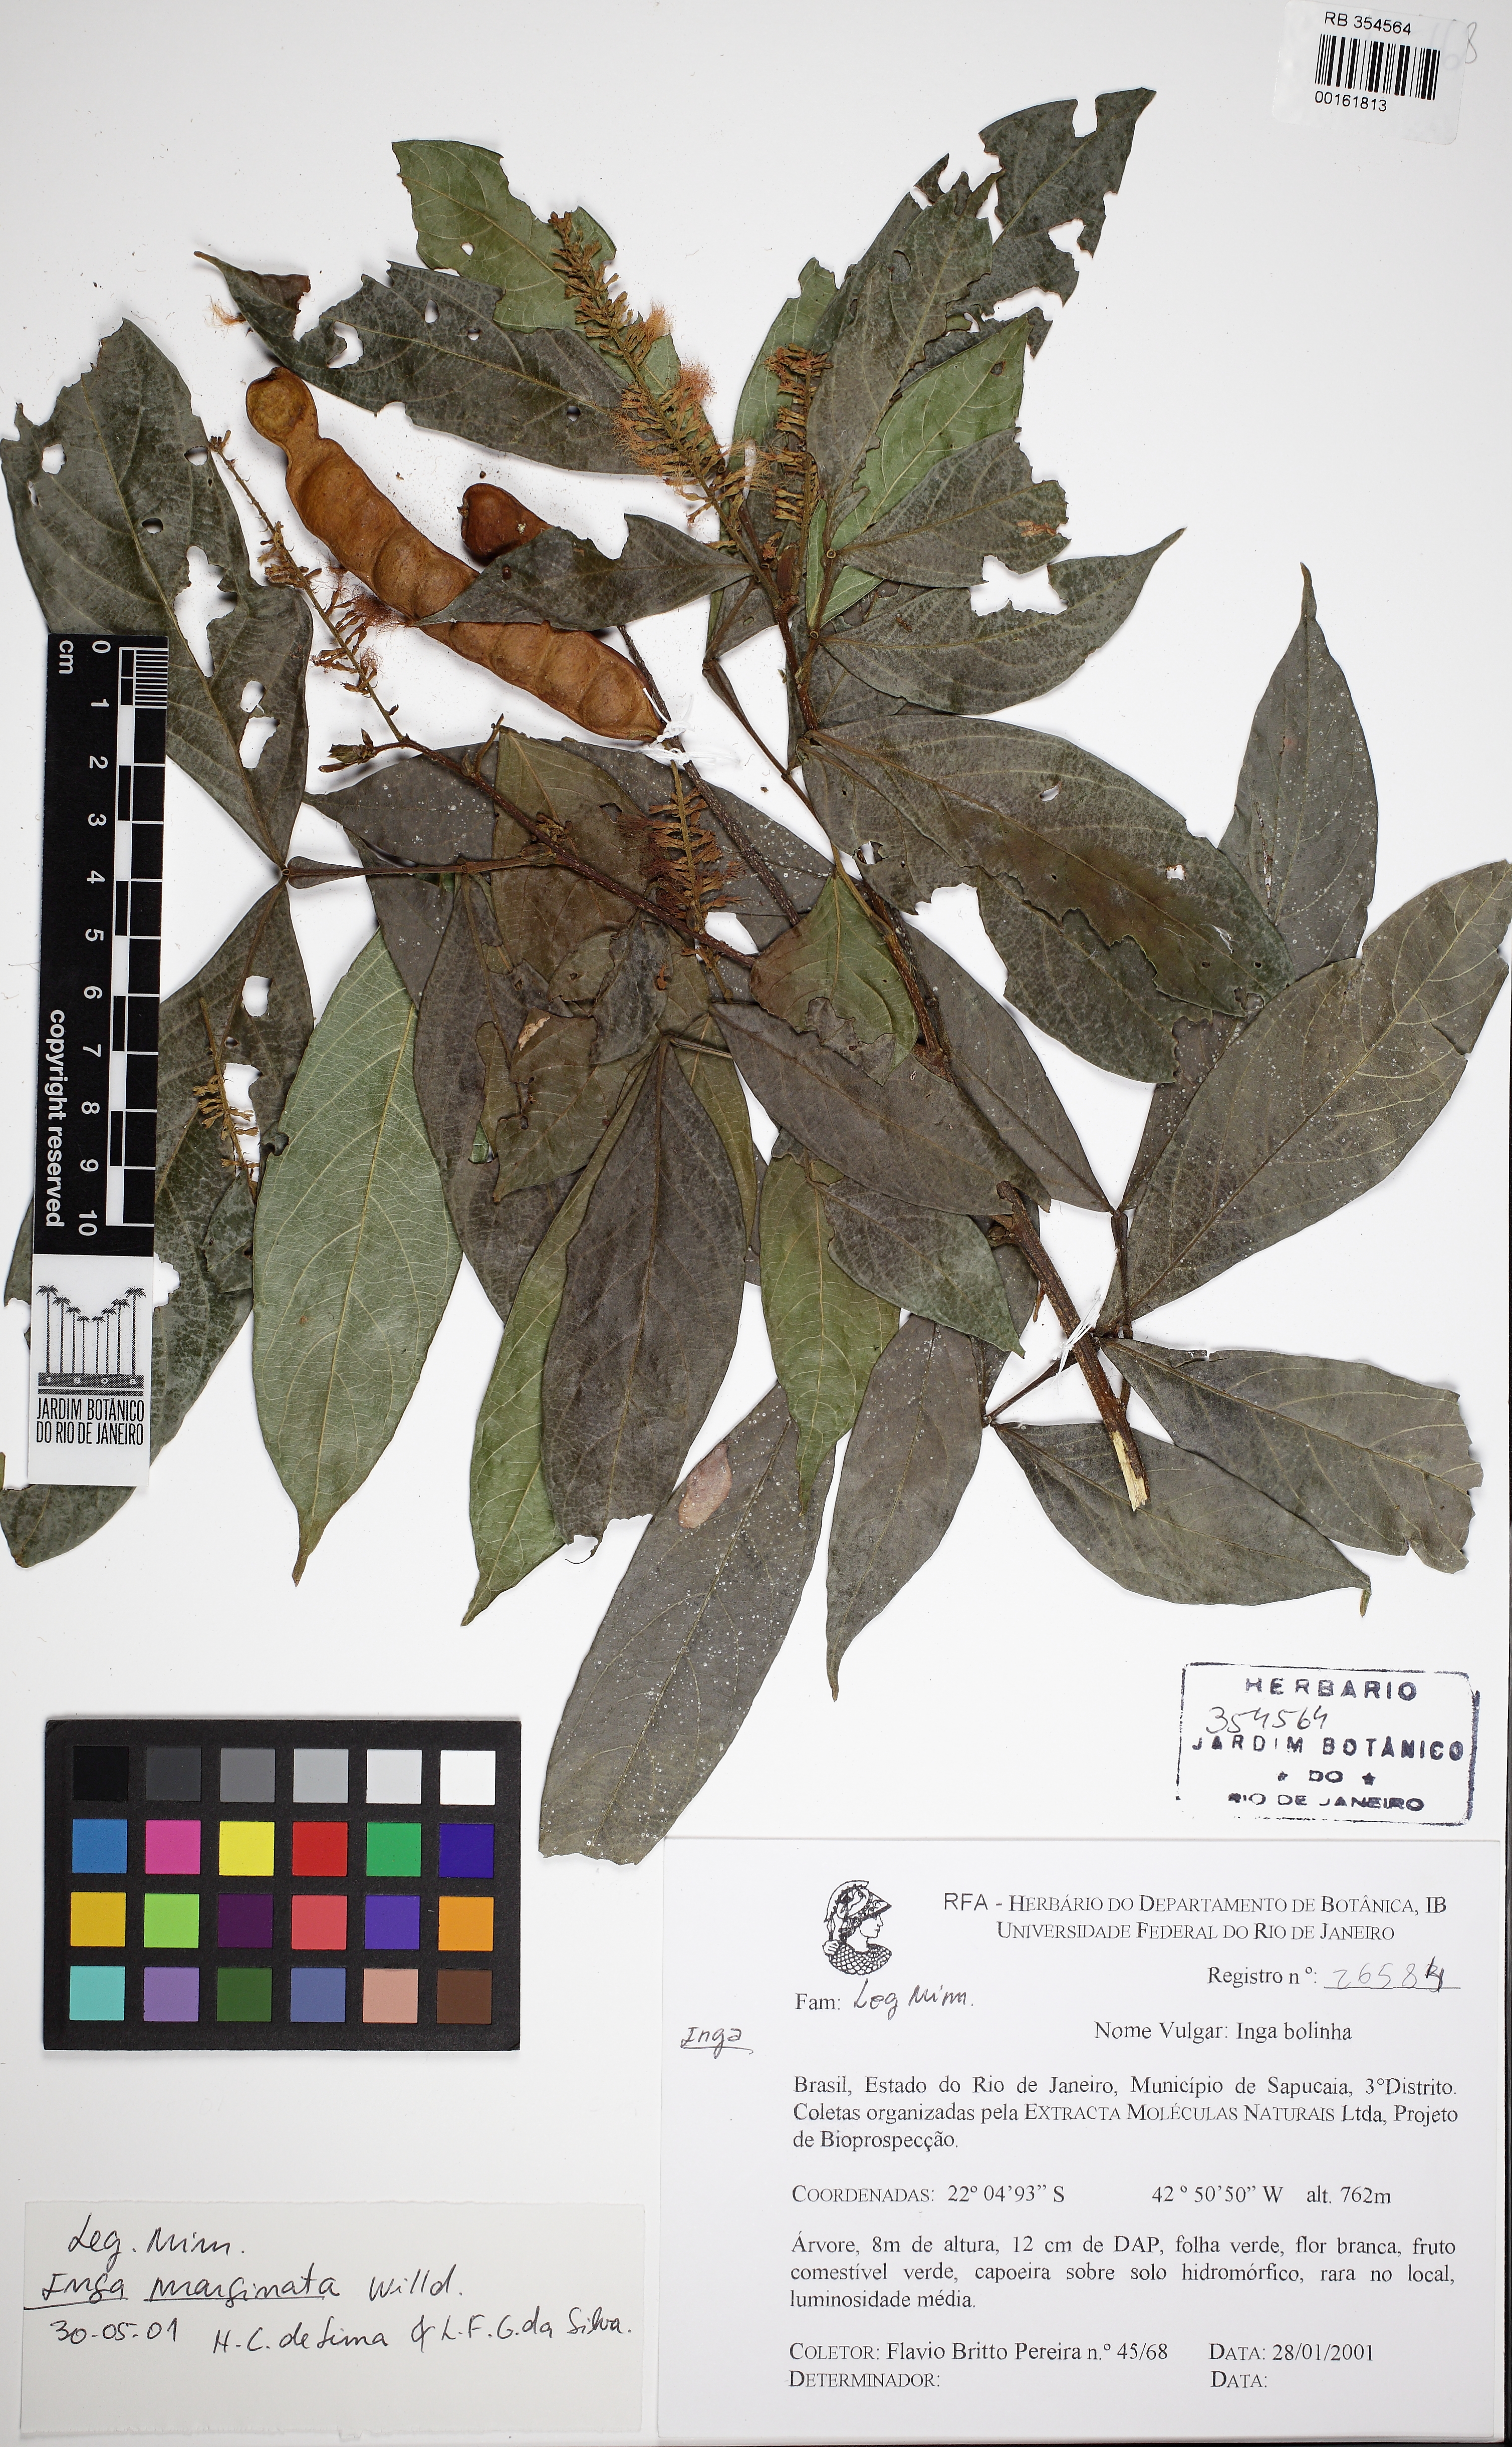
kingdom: Plantae
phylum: Tracheophyta
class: Magnoliopsida
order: Fabales
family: Fabaceae
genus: Inga
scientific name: Inga marginata
